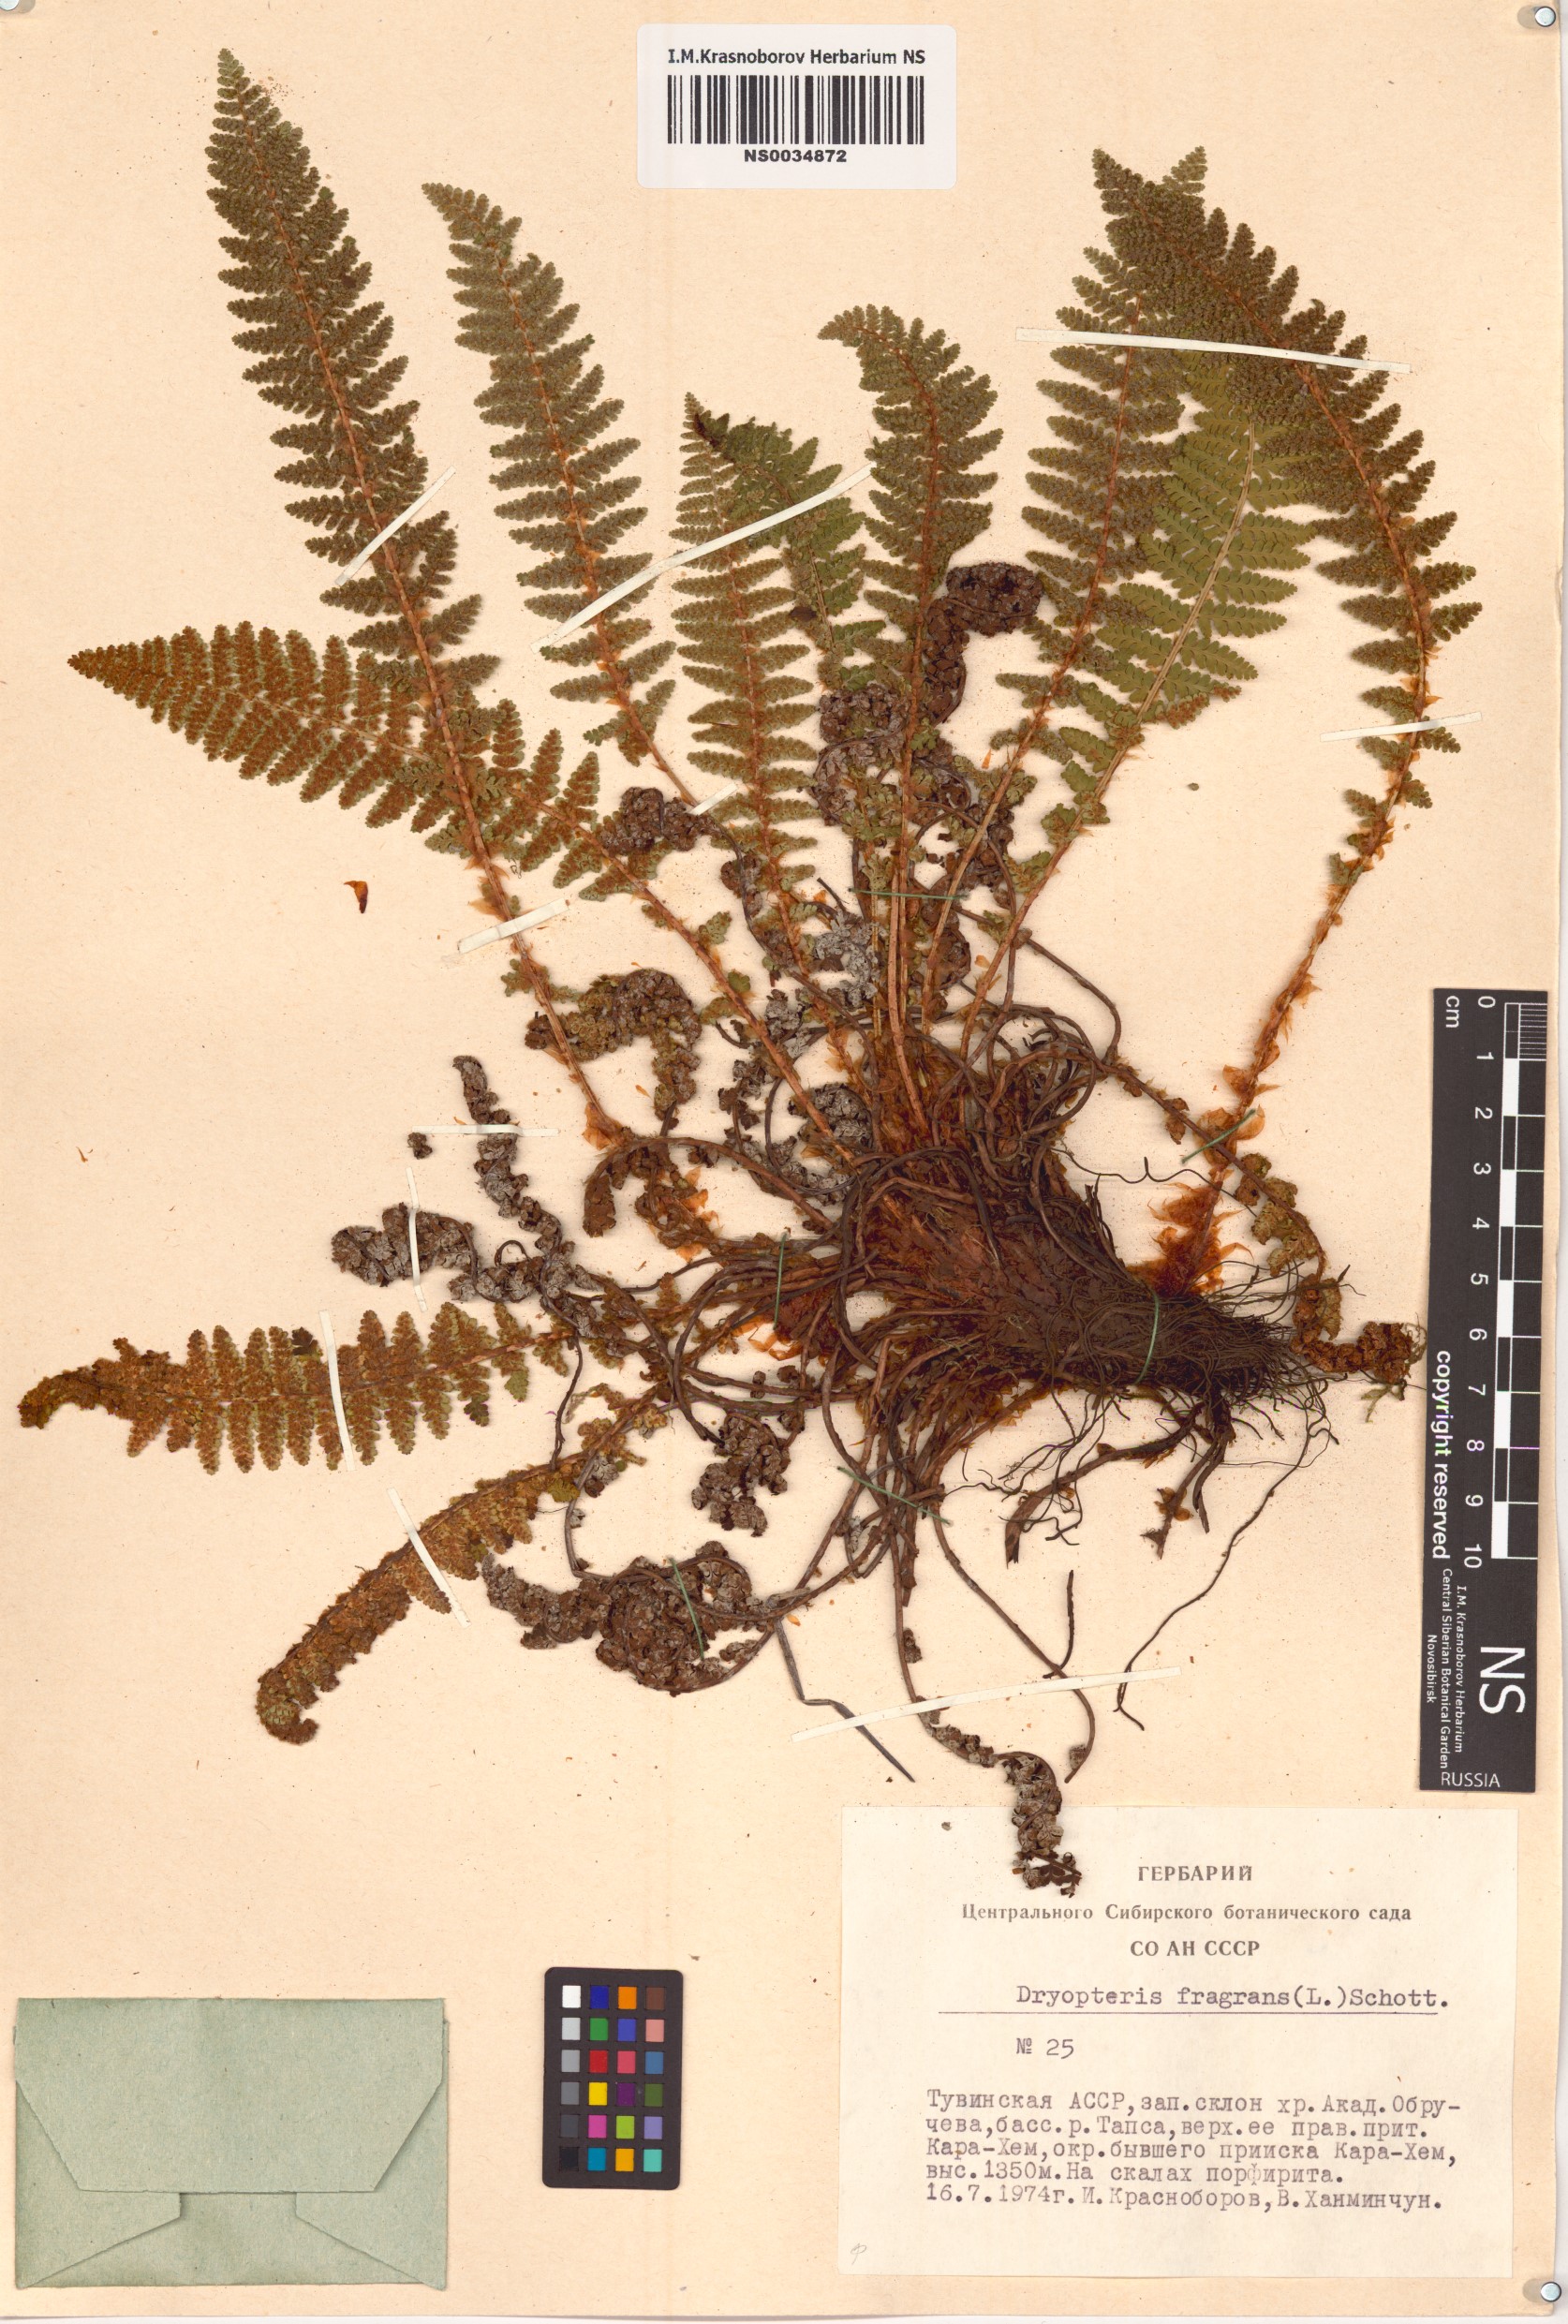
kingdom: Plantae
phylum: Tracheophyta
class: Polypodiopsida
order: Polypodiales
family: Dryopteridaceae
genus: Dryopteris
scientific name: Dryopteris fragrans
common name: Fragrant wood fern
